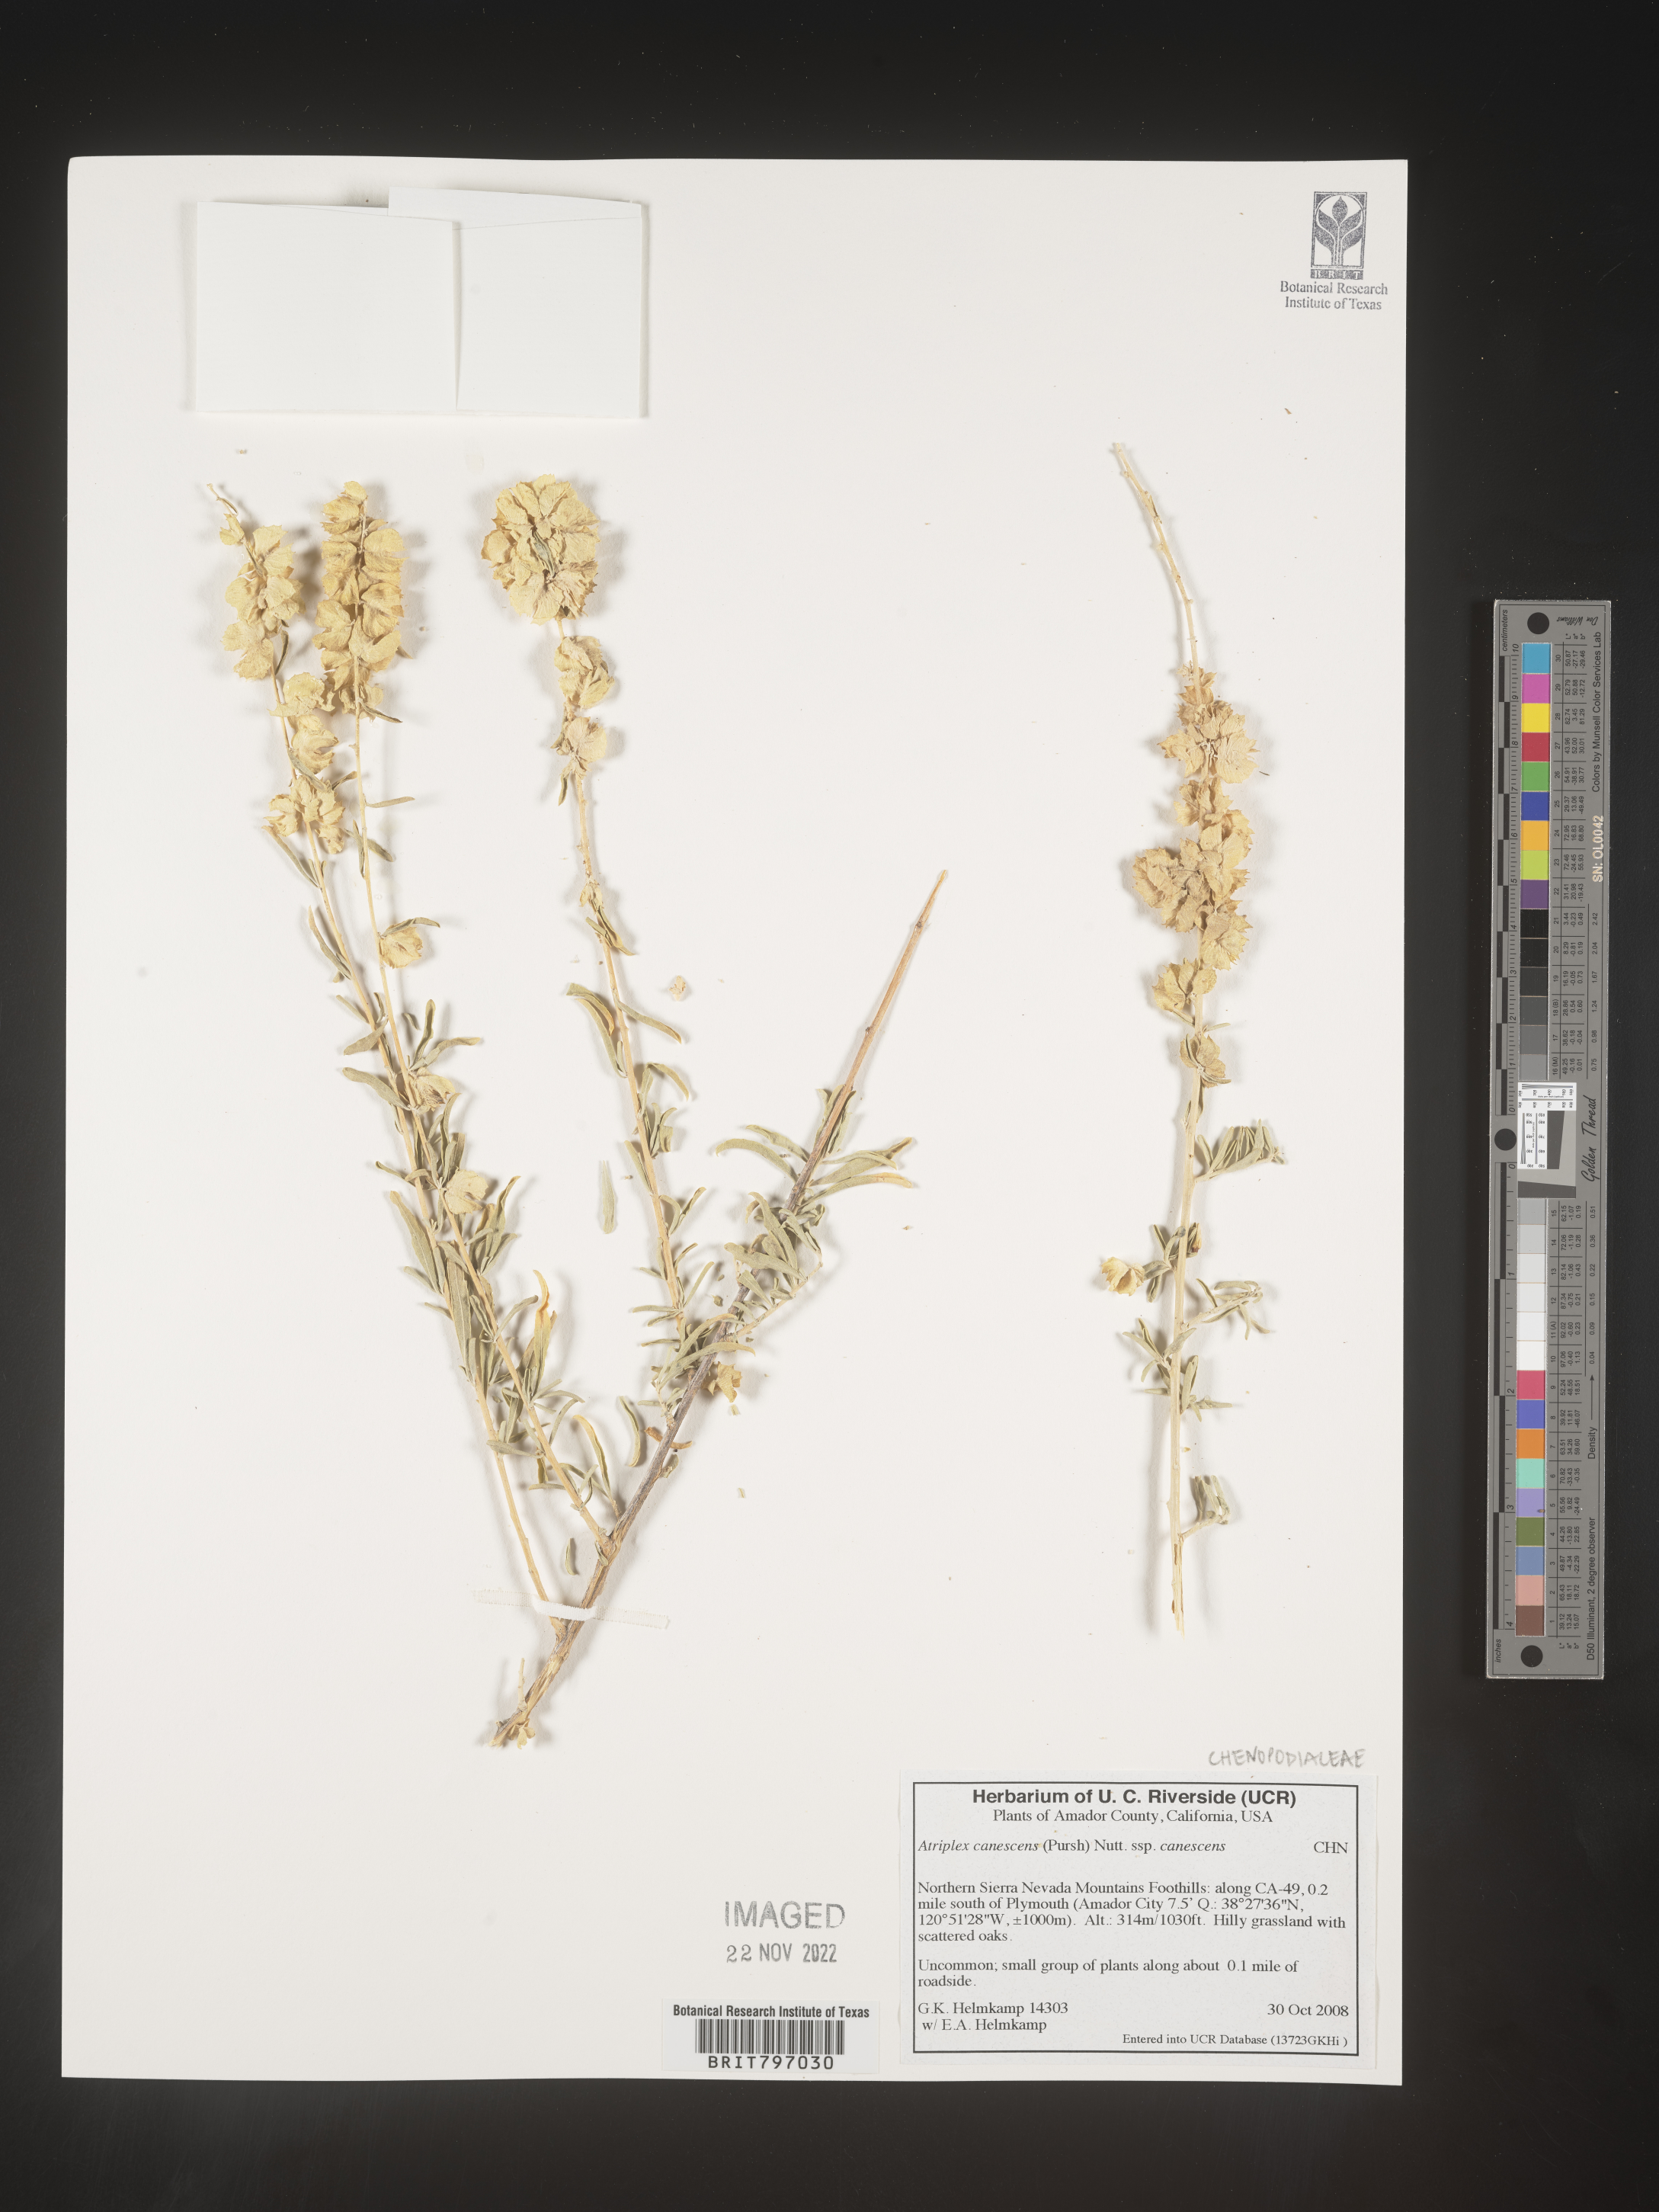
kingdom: Plantae
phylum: Tracheophyta
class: Magnoliopsida
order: Caryophyllales
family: Amaranthaceae
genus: Atriplex
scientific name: Atriplex canescens
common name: Four-wing saltbush
